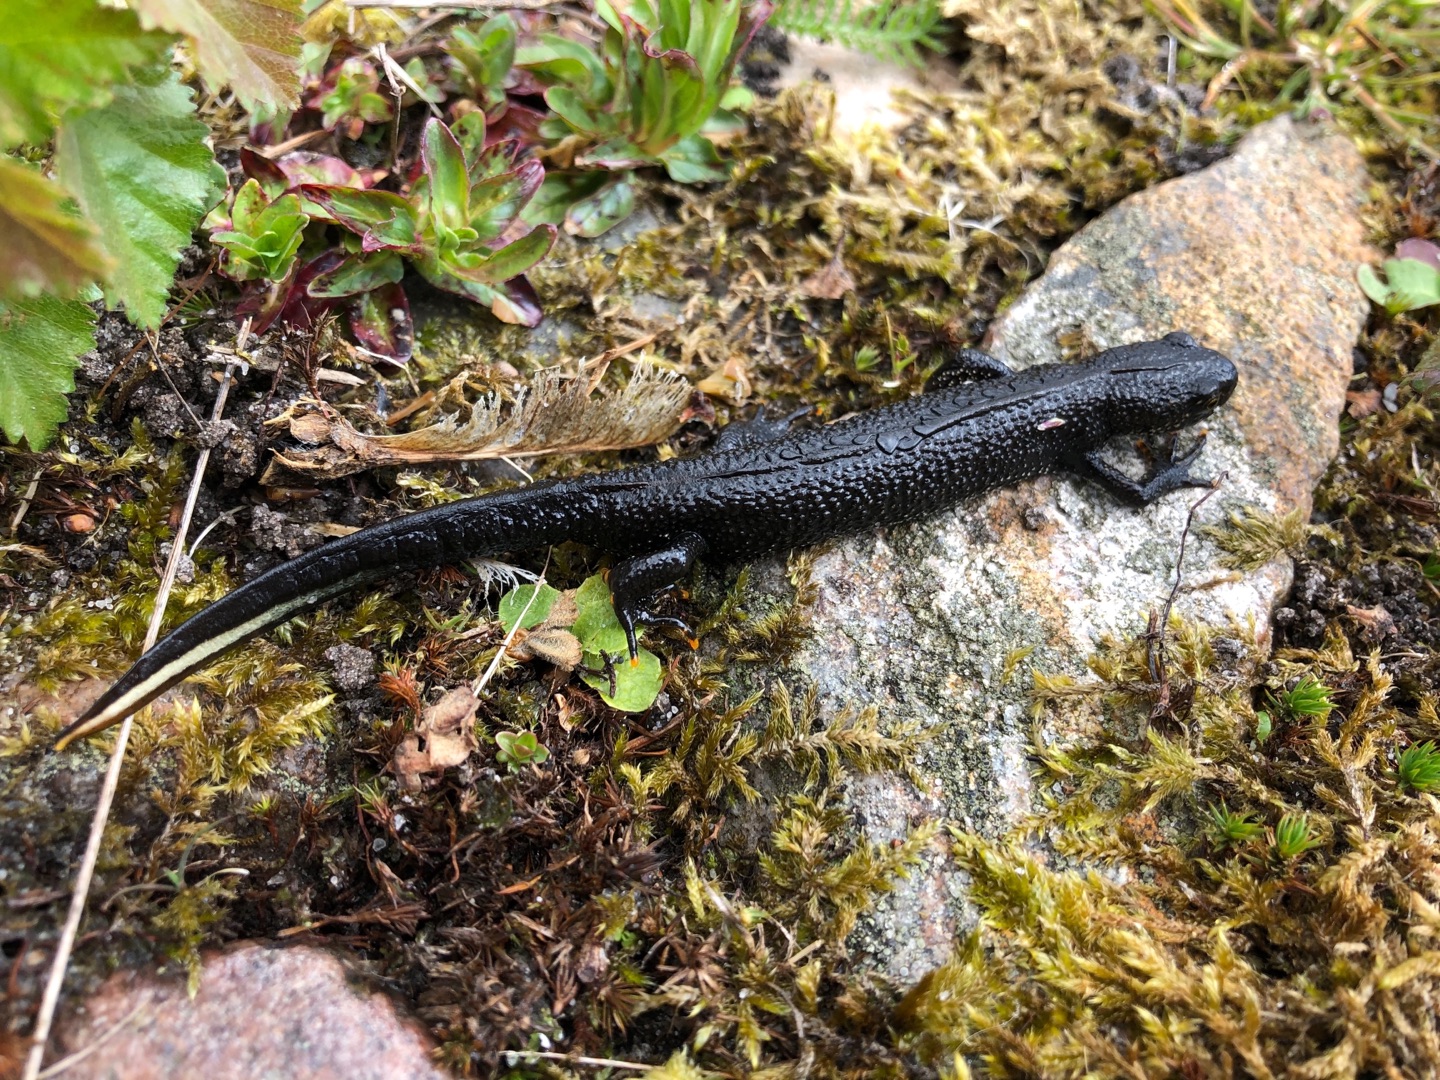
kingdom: Animalia
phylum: Chordata
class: Amphibia
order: Caudata
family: Salamandridae
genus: Triturus
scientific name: Triturus cristatus
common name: Stor vandsalamander
